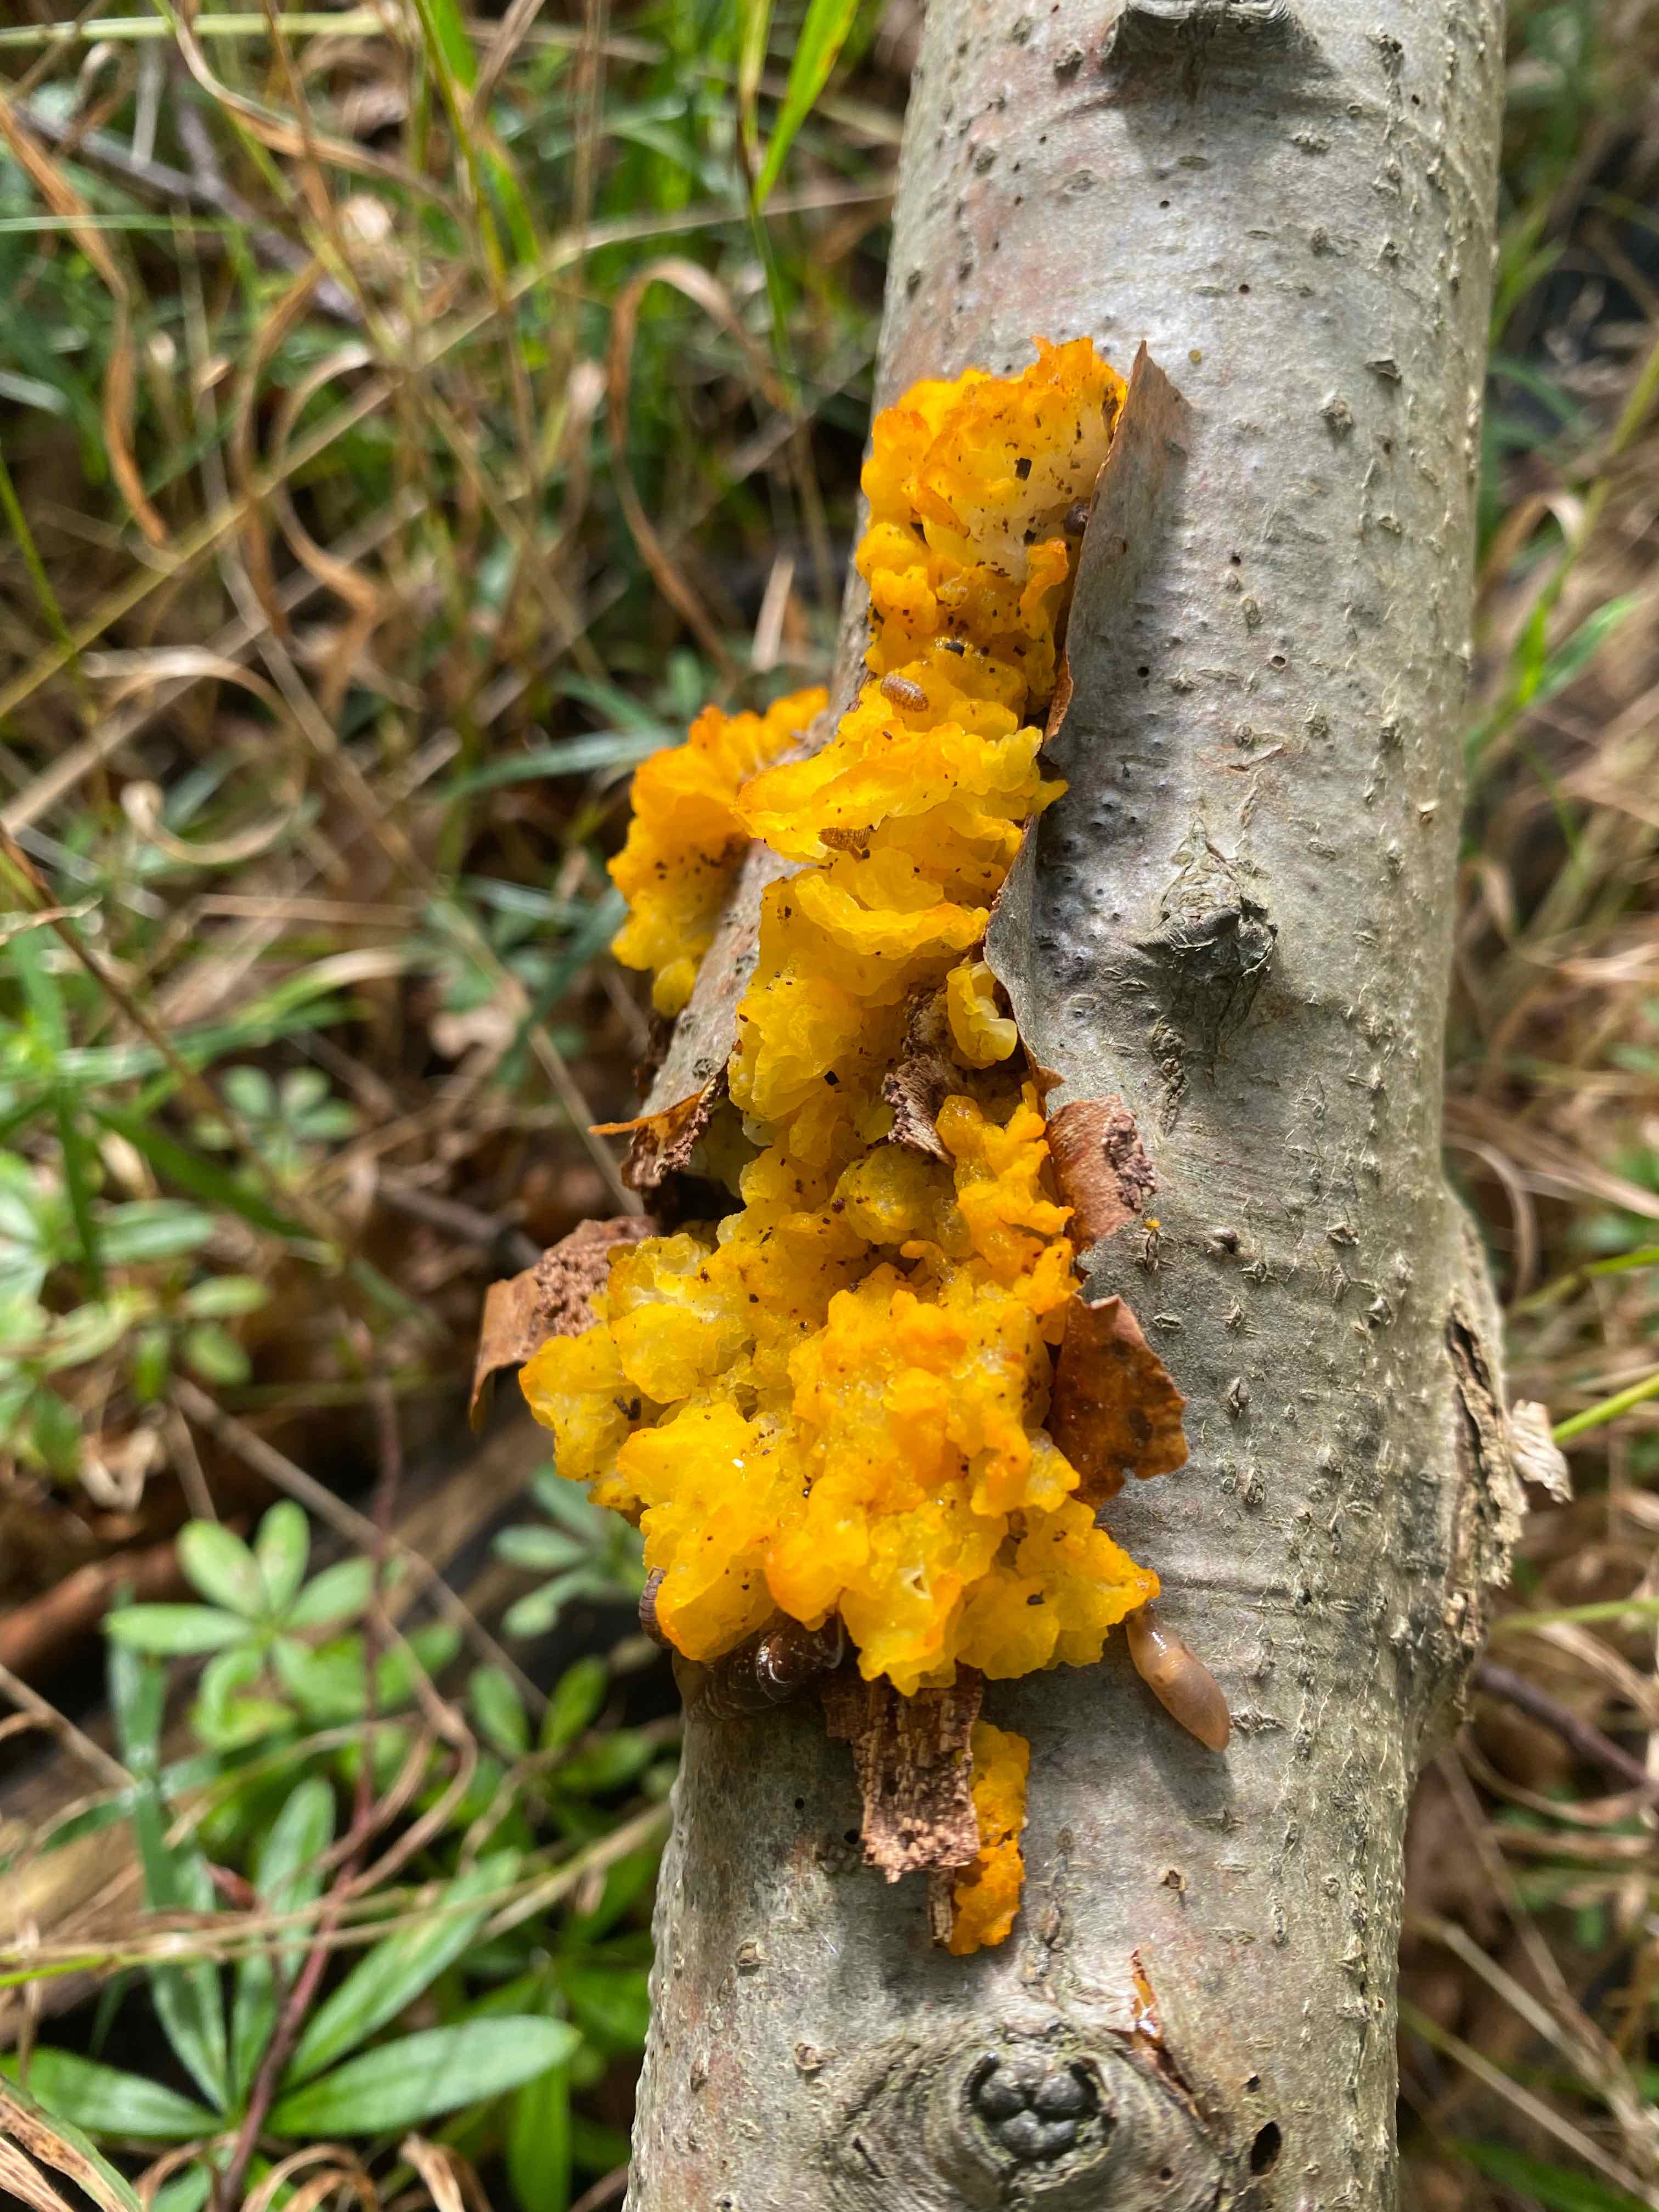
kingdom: Fungi
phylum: Basidiomycota
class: Tremellomycetes
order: Tremellales
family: Tremellaceae
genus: Tremella
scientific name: Tremella mesenterica
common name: gul bævresvamp
